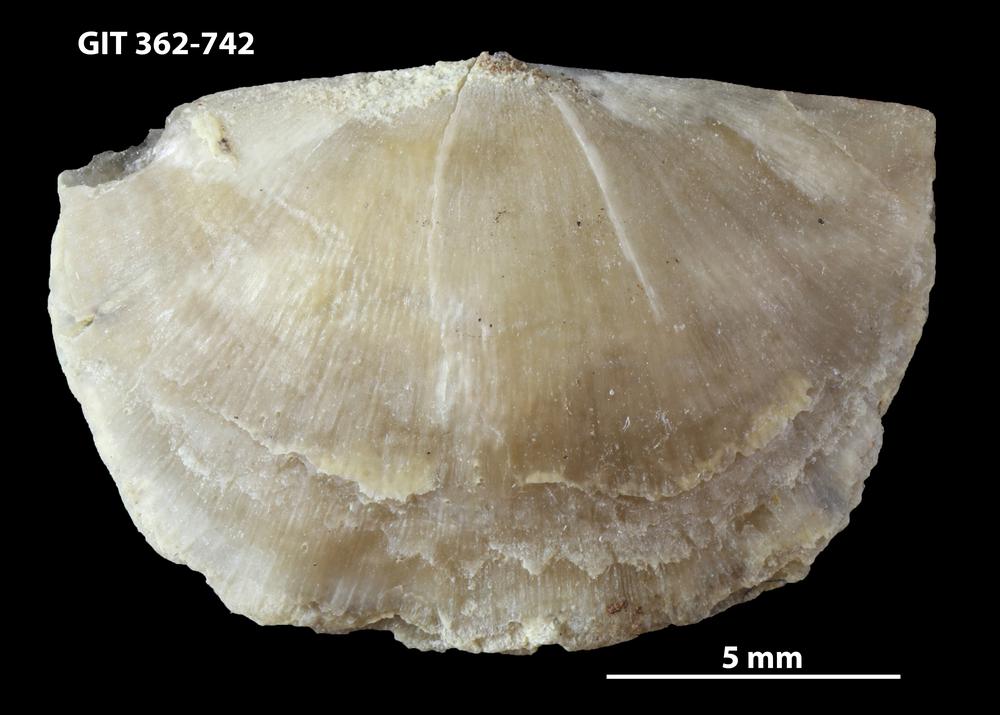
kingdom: Animalia
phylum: Brachiopoda
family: Sowerbyellidae
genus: Sowerbyella
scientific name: Sowerbyella
